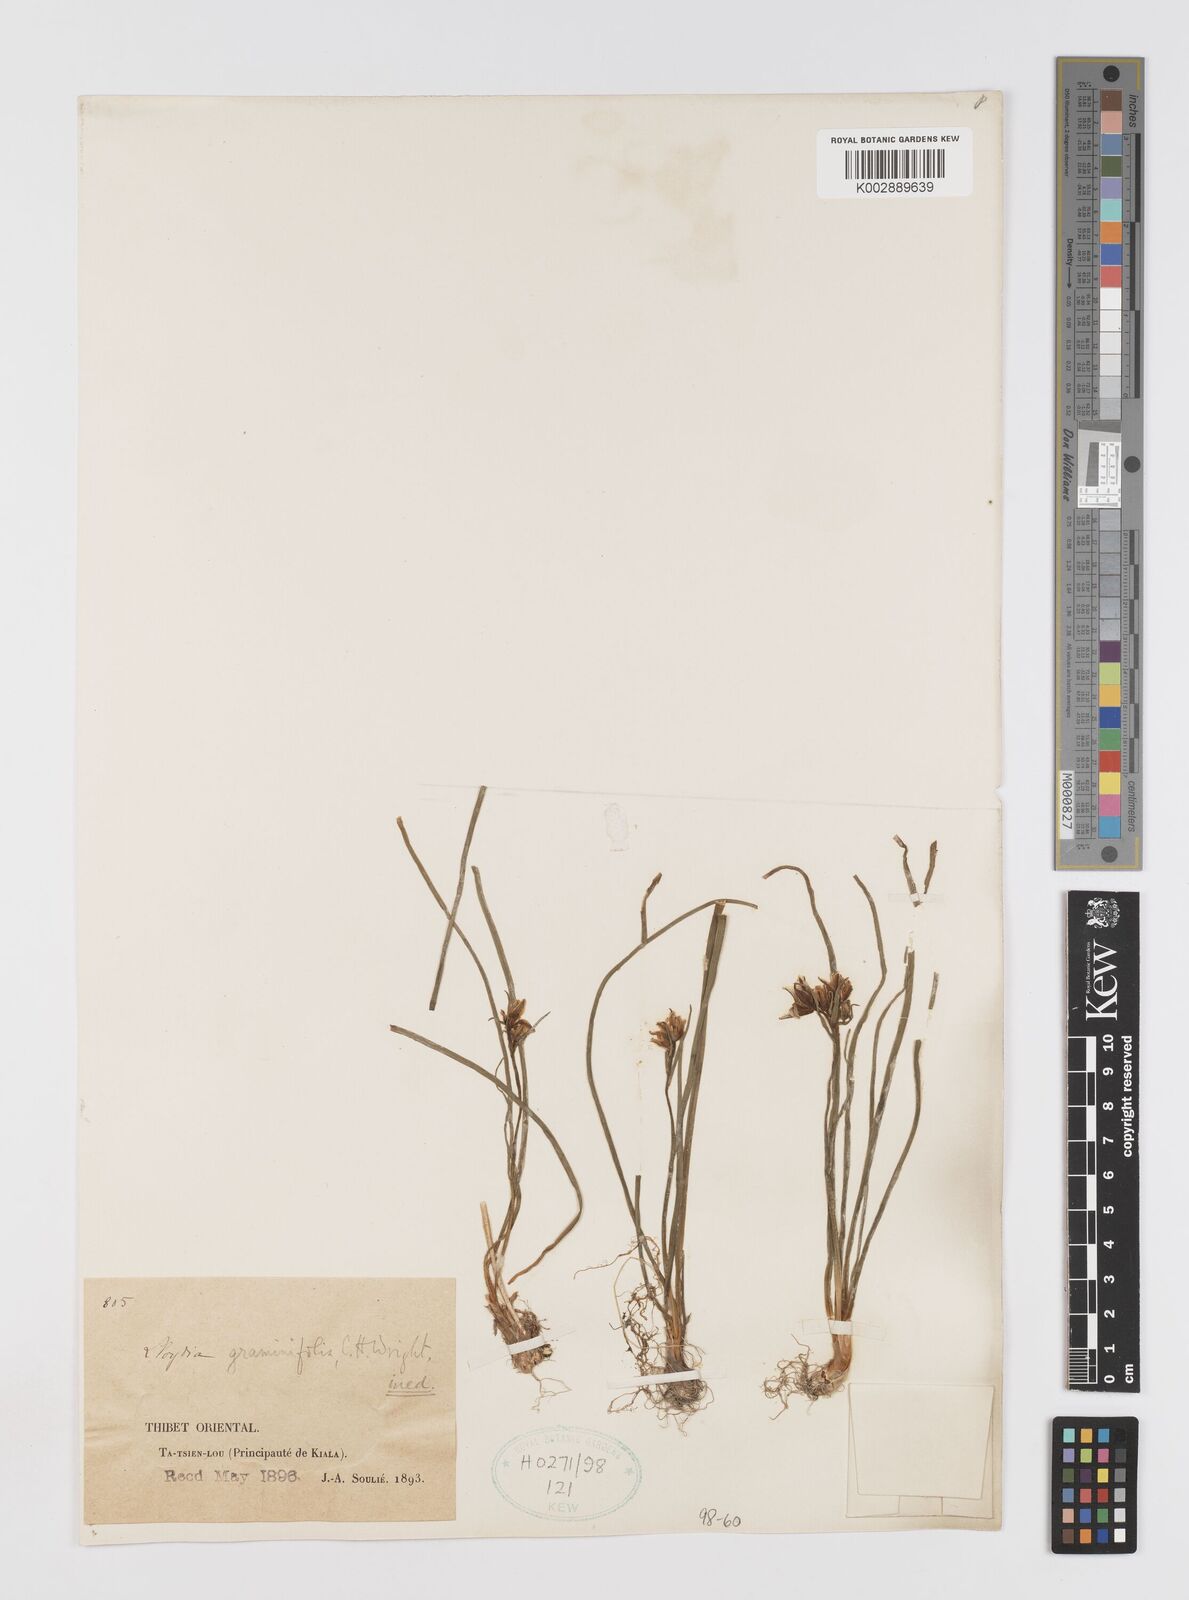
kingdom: Plantae
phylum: Tracheophyta
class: Liliopsida
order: Liliales
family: Liliaceae
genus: Gagea
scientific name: Gagea
